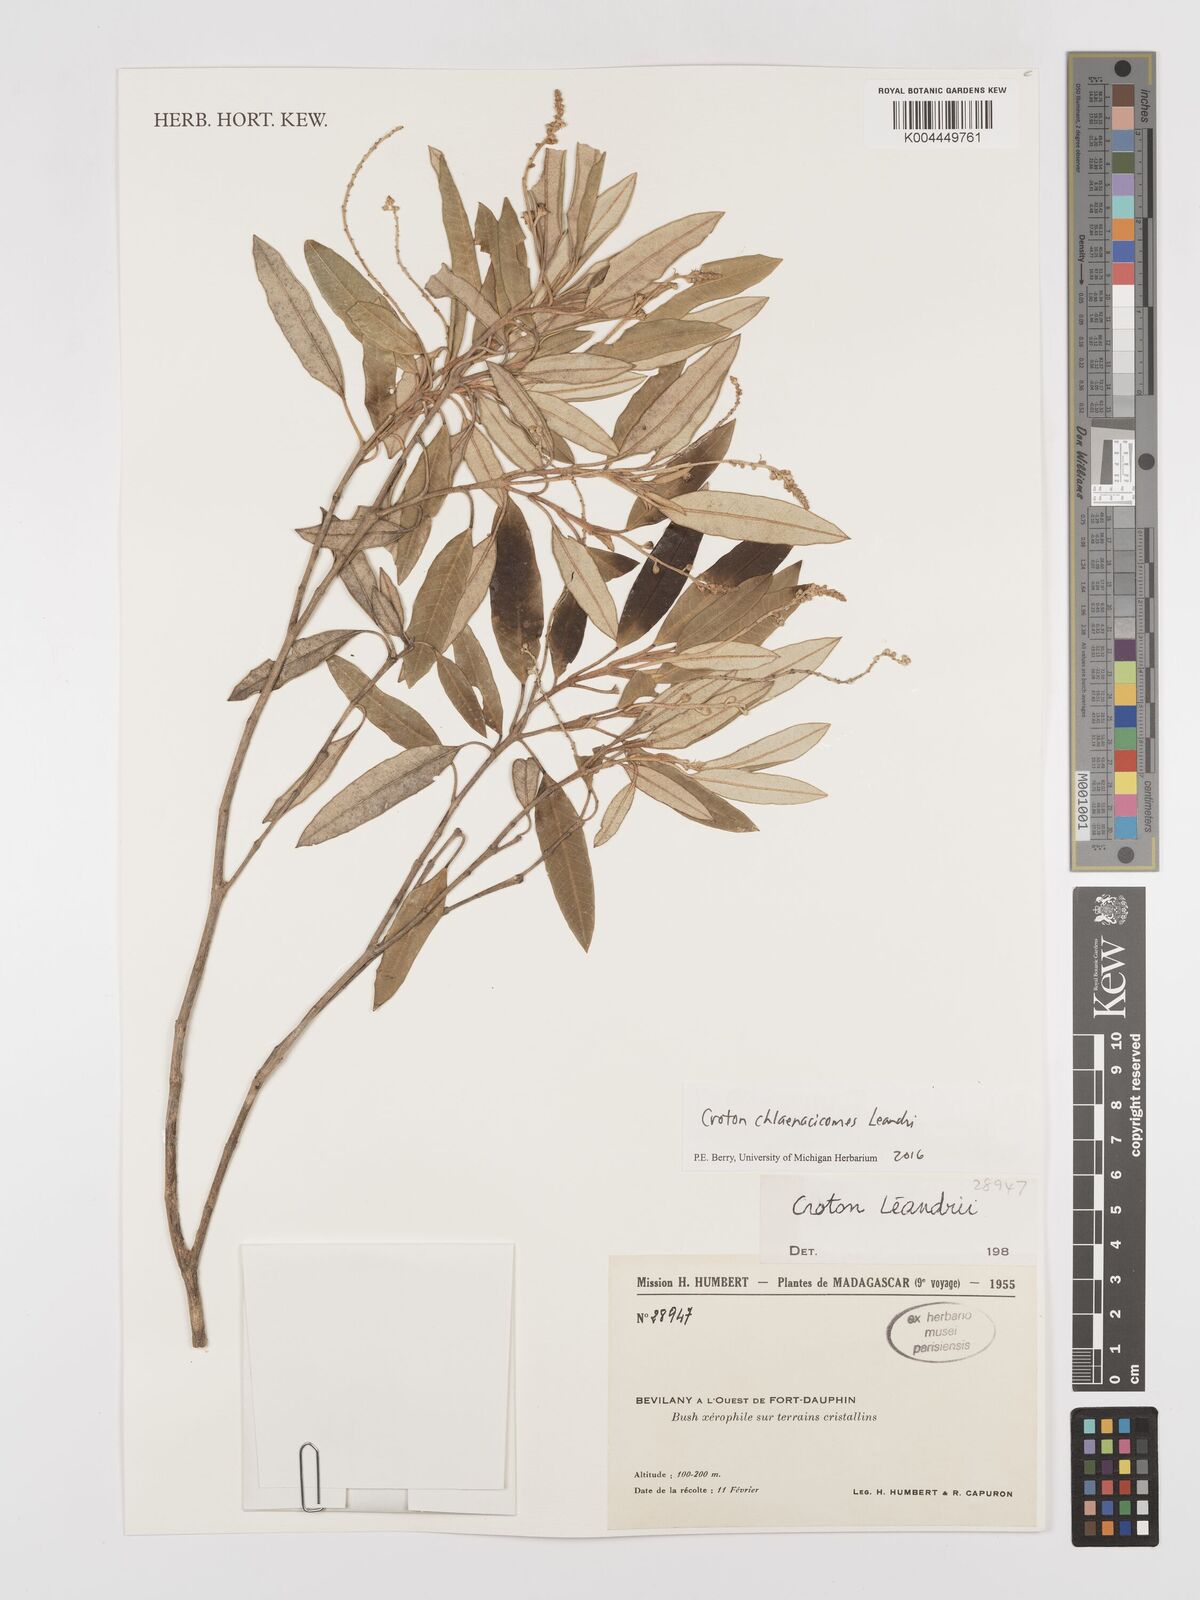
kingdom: Plantae
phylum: Tracheophyta
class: Magnoliopsida
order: Malpighiales
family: Euphorbiaceae
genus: Croton
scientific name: Croton chlaenacicomes
